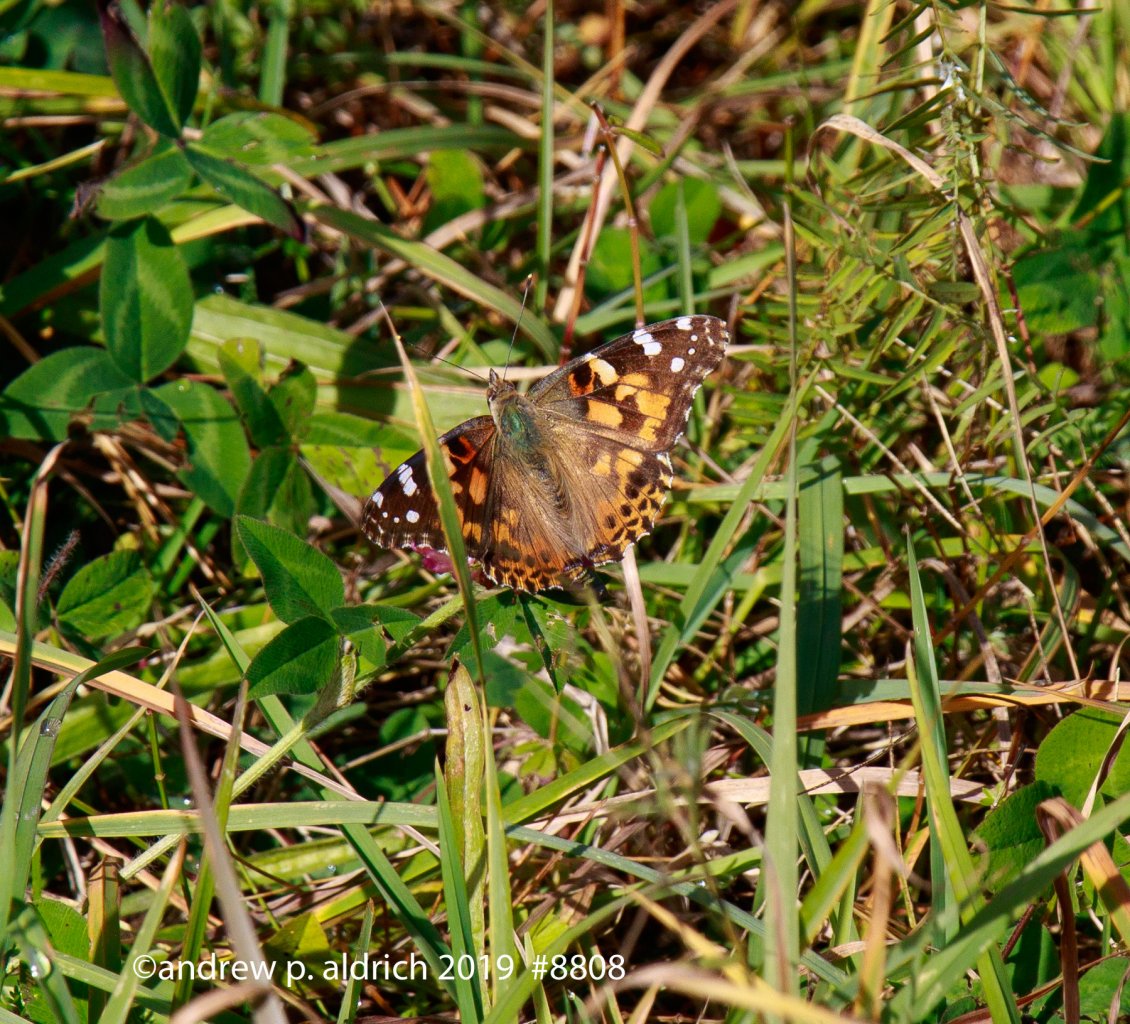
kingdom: Animalia
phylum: Arthropoda
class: Insecta
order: Lepidoptera
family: Nymphalidae
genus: Vanessa
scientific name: Vanessa cardui
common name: Painted Lady
